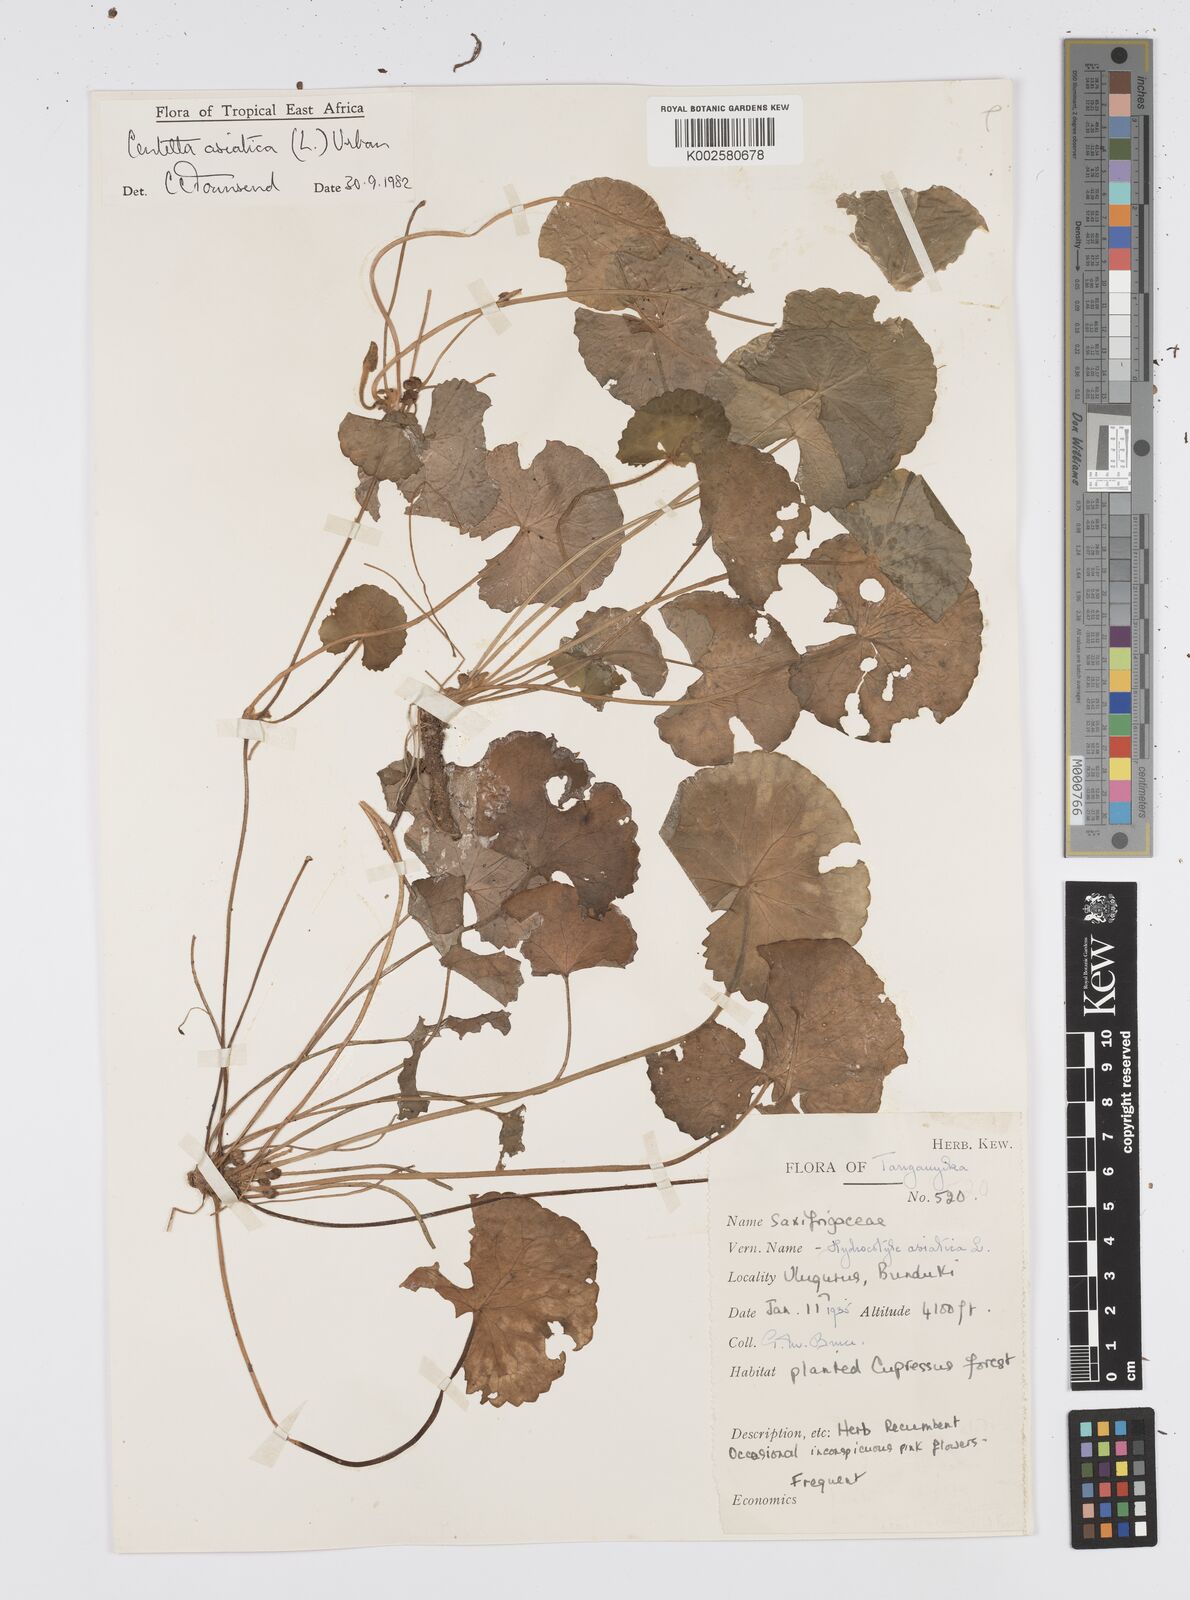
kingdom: Plantae
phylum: Tracheophyta
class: Magnoliopsida
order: Apiales
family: Apiaceae
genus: Centella
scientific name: Centella asiatica
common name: Spadeleaf
